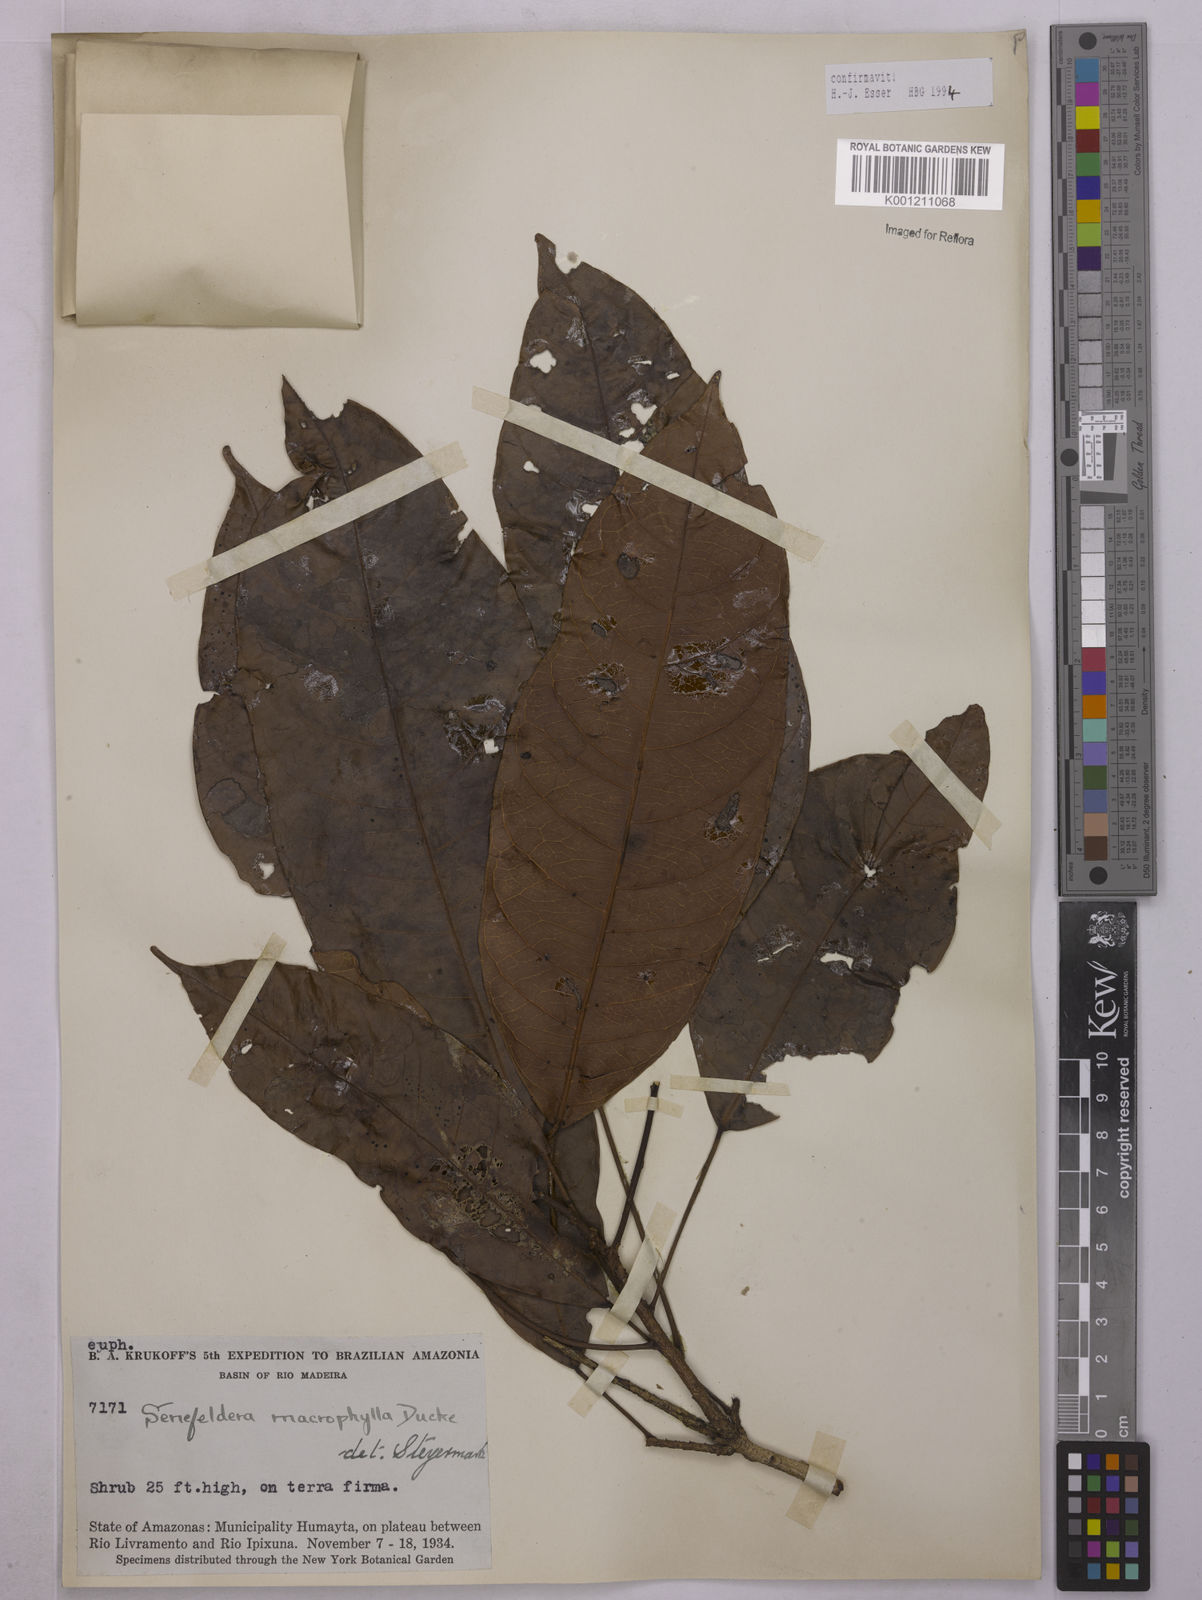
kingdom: Plantae
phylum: Tracheophyta
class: Magnoliopsida
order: Malpighiales
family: Euphorbiaceae
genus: Rhodothyrsus
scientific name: Rhodothyrsus macrophyllus
